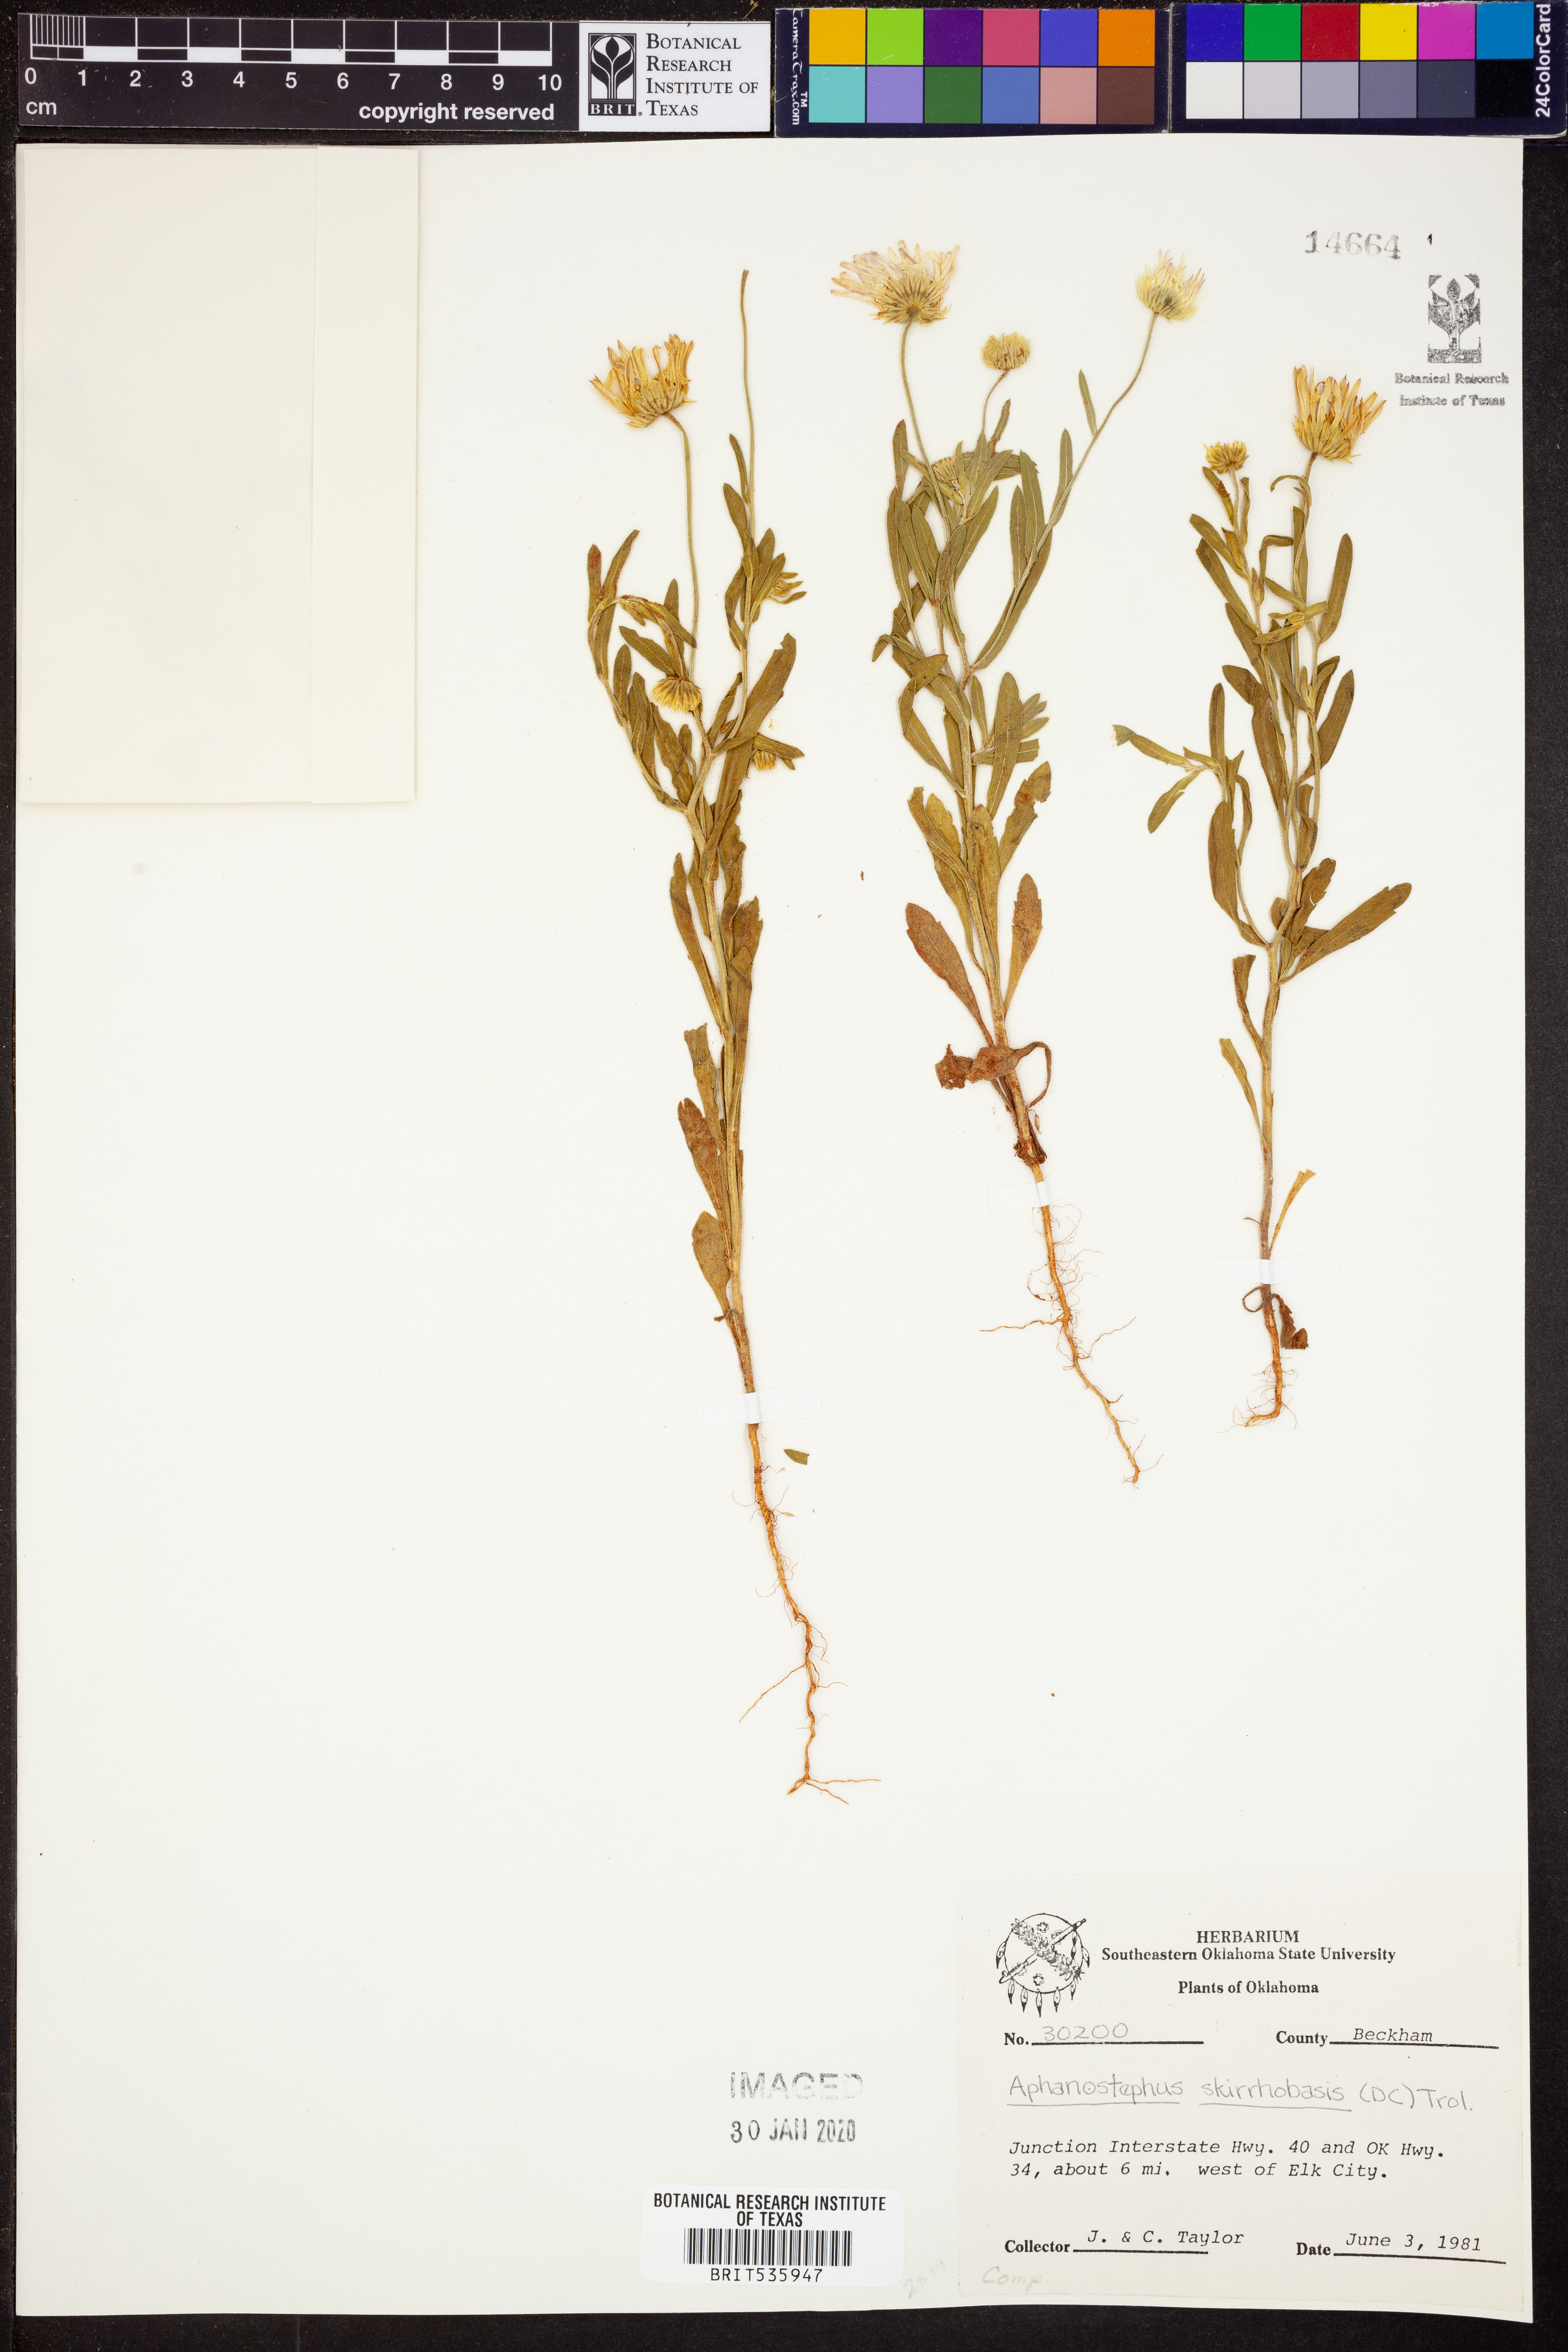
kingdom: Plantae
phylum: Tracheophyta
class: Magnoliopsida
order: Asterales
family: Asteraceae
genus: Aphanostephus
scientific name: Aphanostephus skirrhobasis
